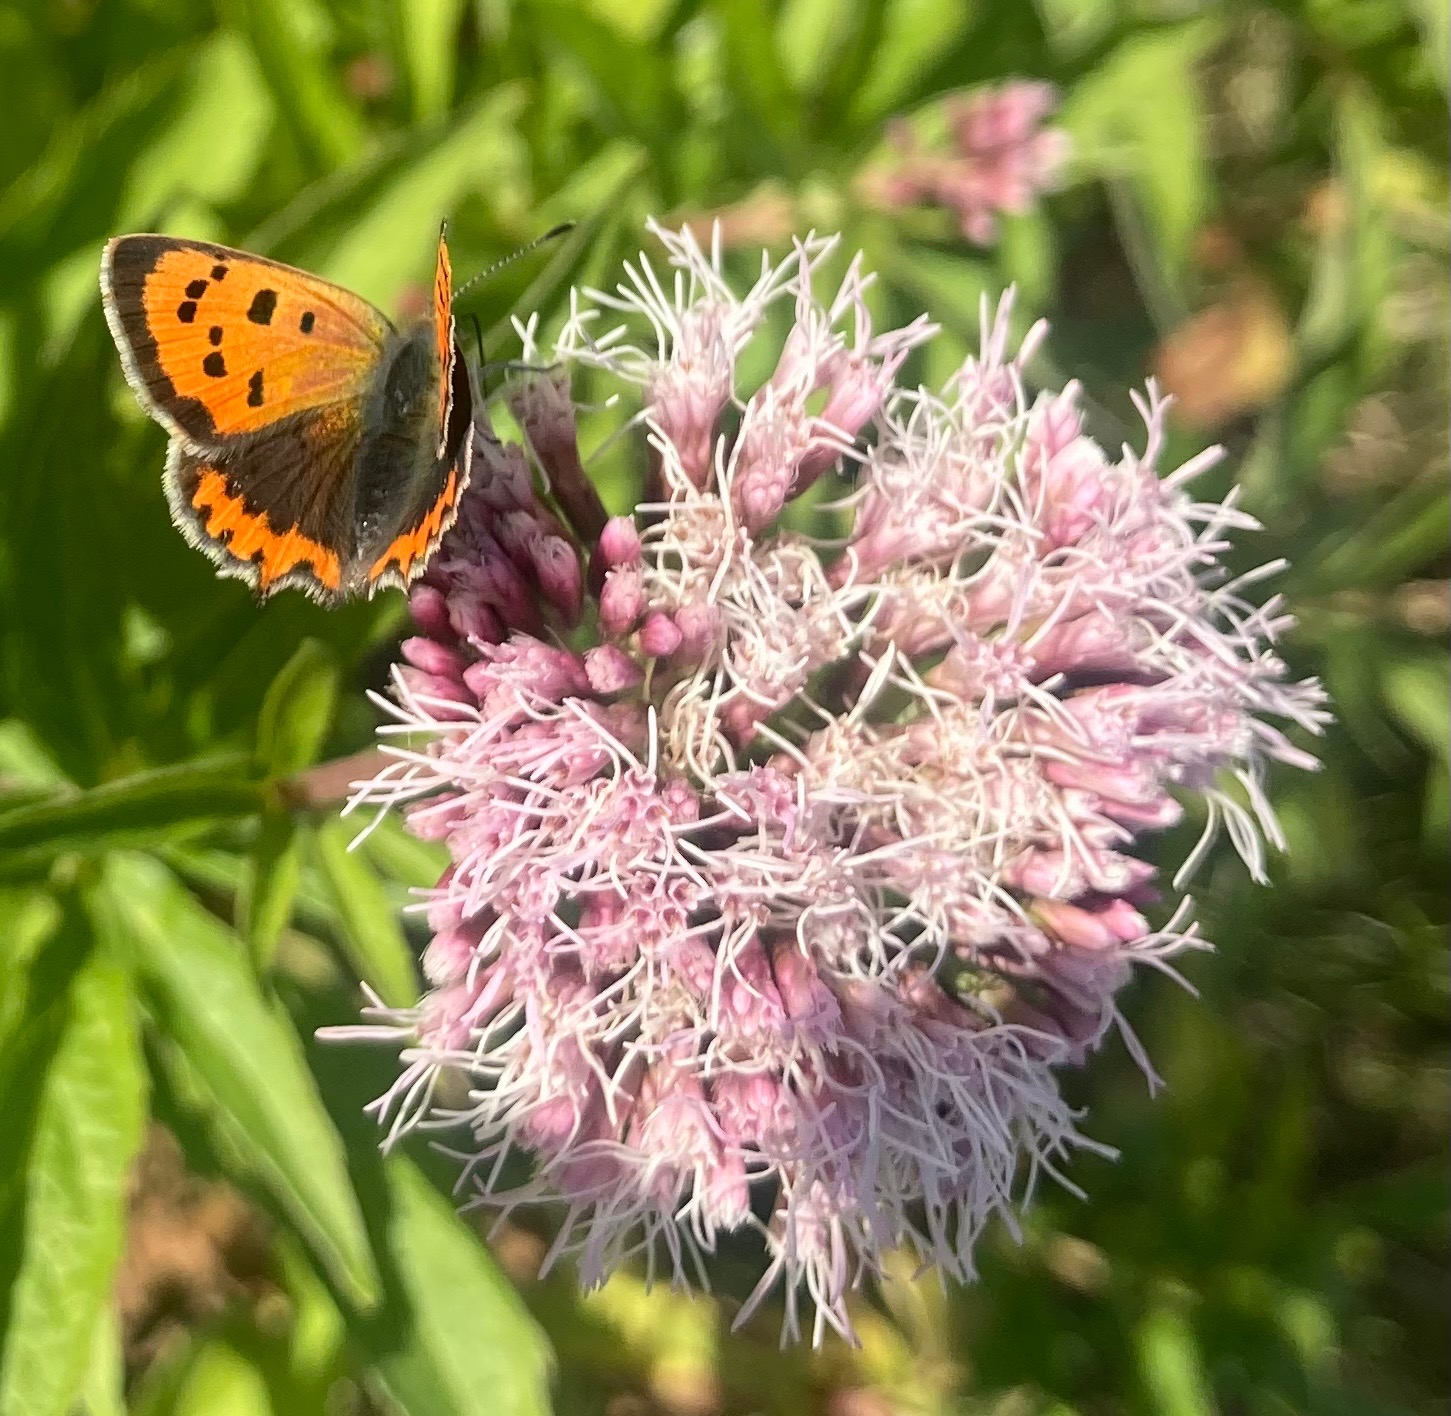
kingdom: Animalia
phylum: Arthropoda
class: Insecta
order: Lepidoptera
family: Lycaenidae
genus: Lycaena
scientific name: Lycaena phlaeas
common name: Lille ildfugl
